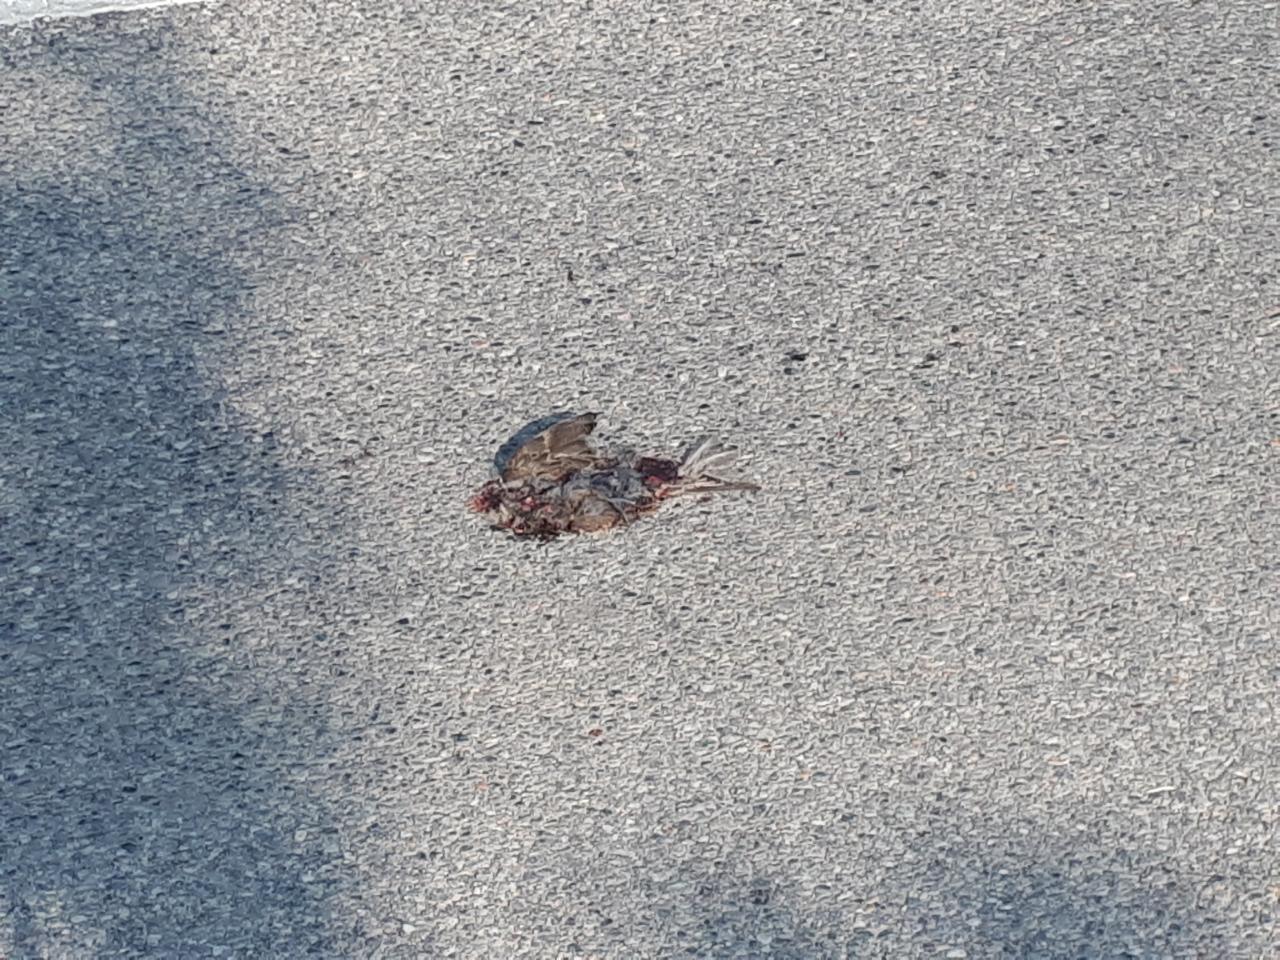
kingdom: Animalia
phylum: Chordata
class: Aves
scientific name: Aves
